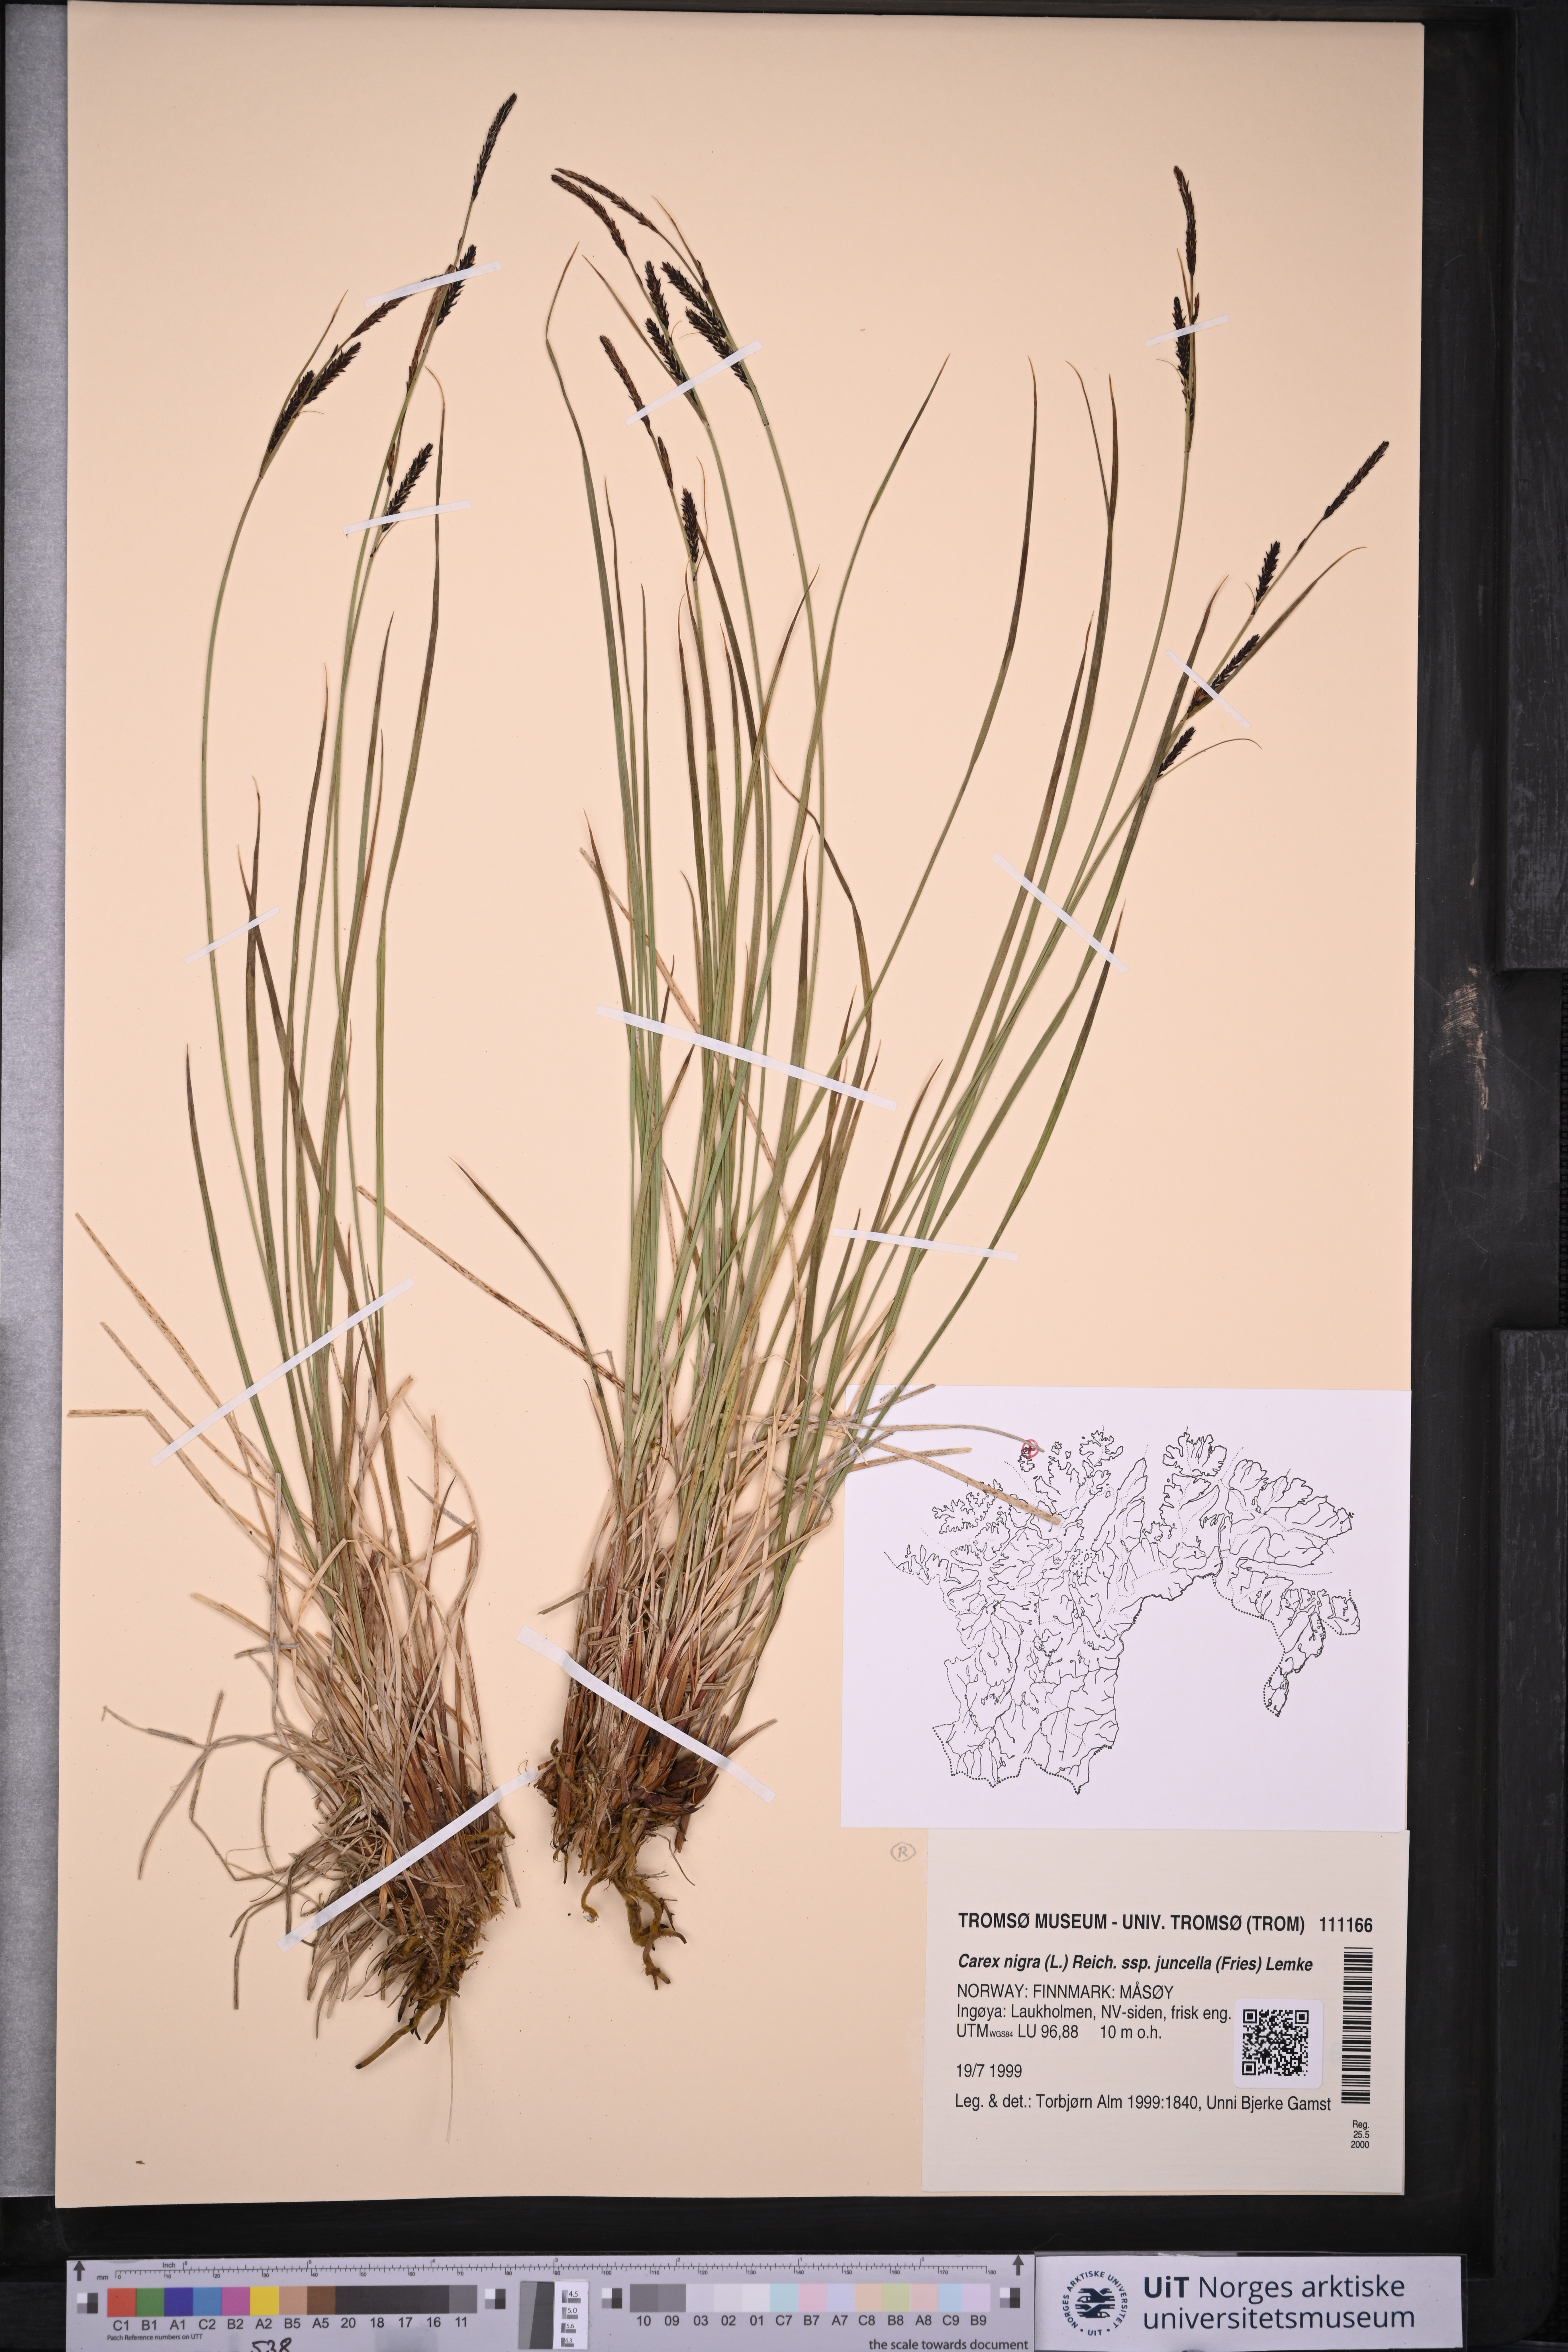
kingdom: Plantae
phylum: Tracheophyta
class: Liliopsida
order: Poales
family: Cyperaceae
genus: Carex
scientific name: Carex nigra
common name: Common sedge
